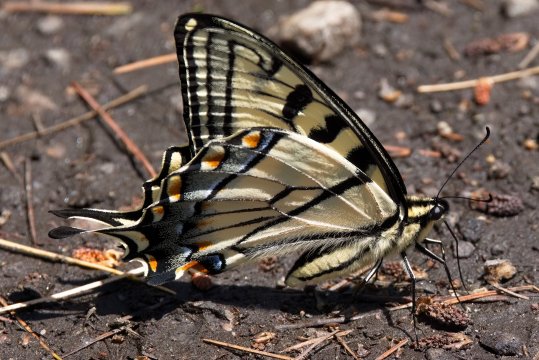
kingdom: Animalia
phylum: Arthropoda
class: Insecta
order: Lepidoptera
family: Papilionidae
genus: Pterourus
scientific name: Pterourus glaucus
